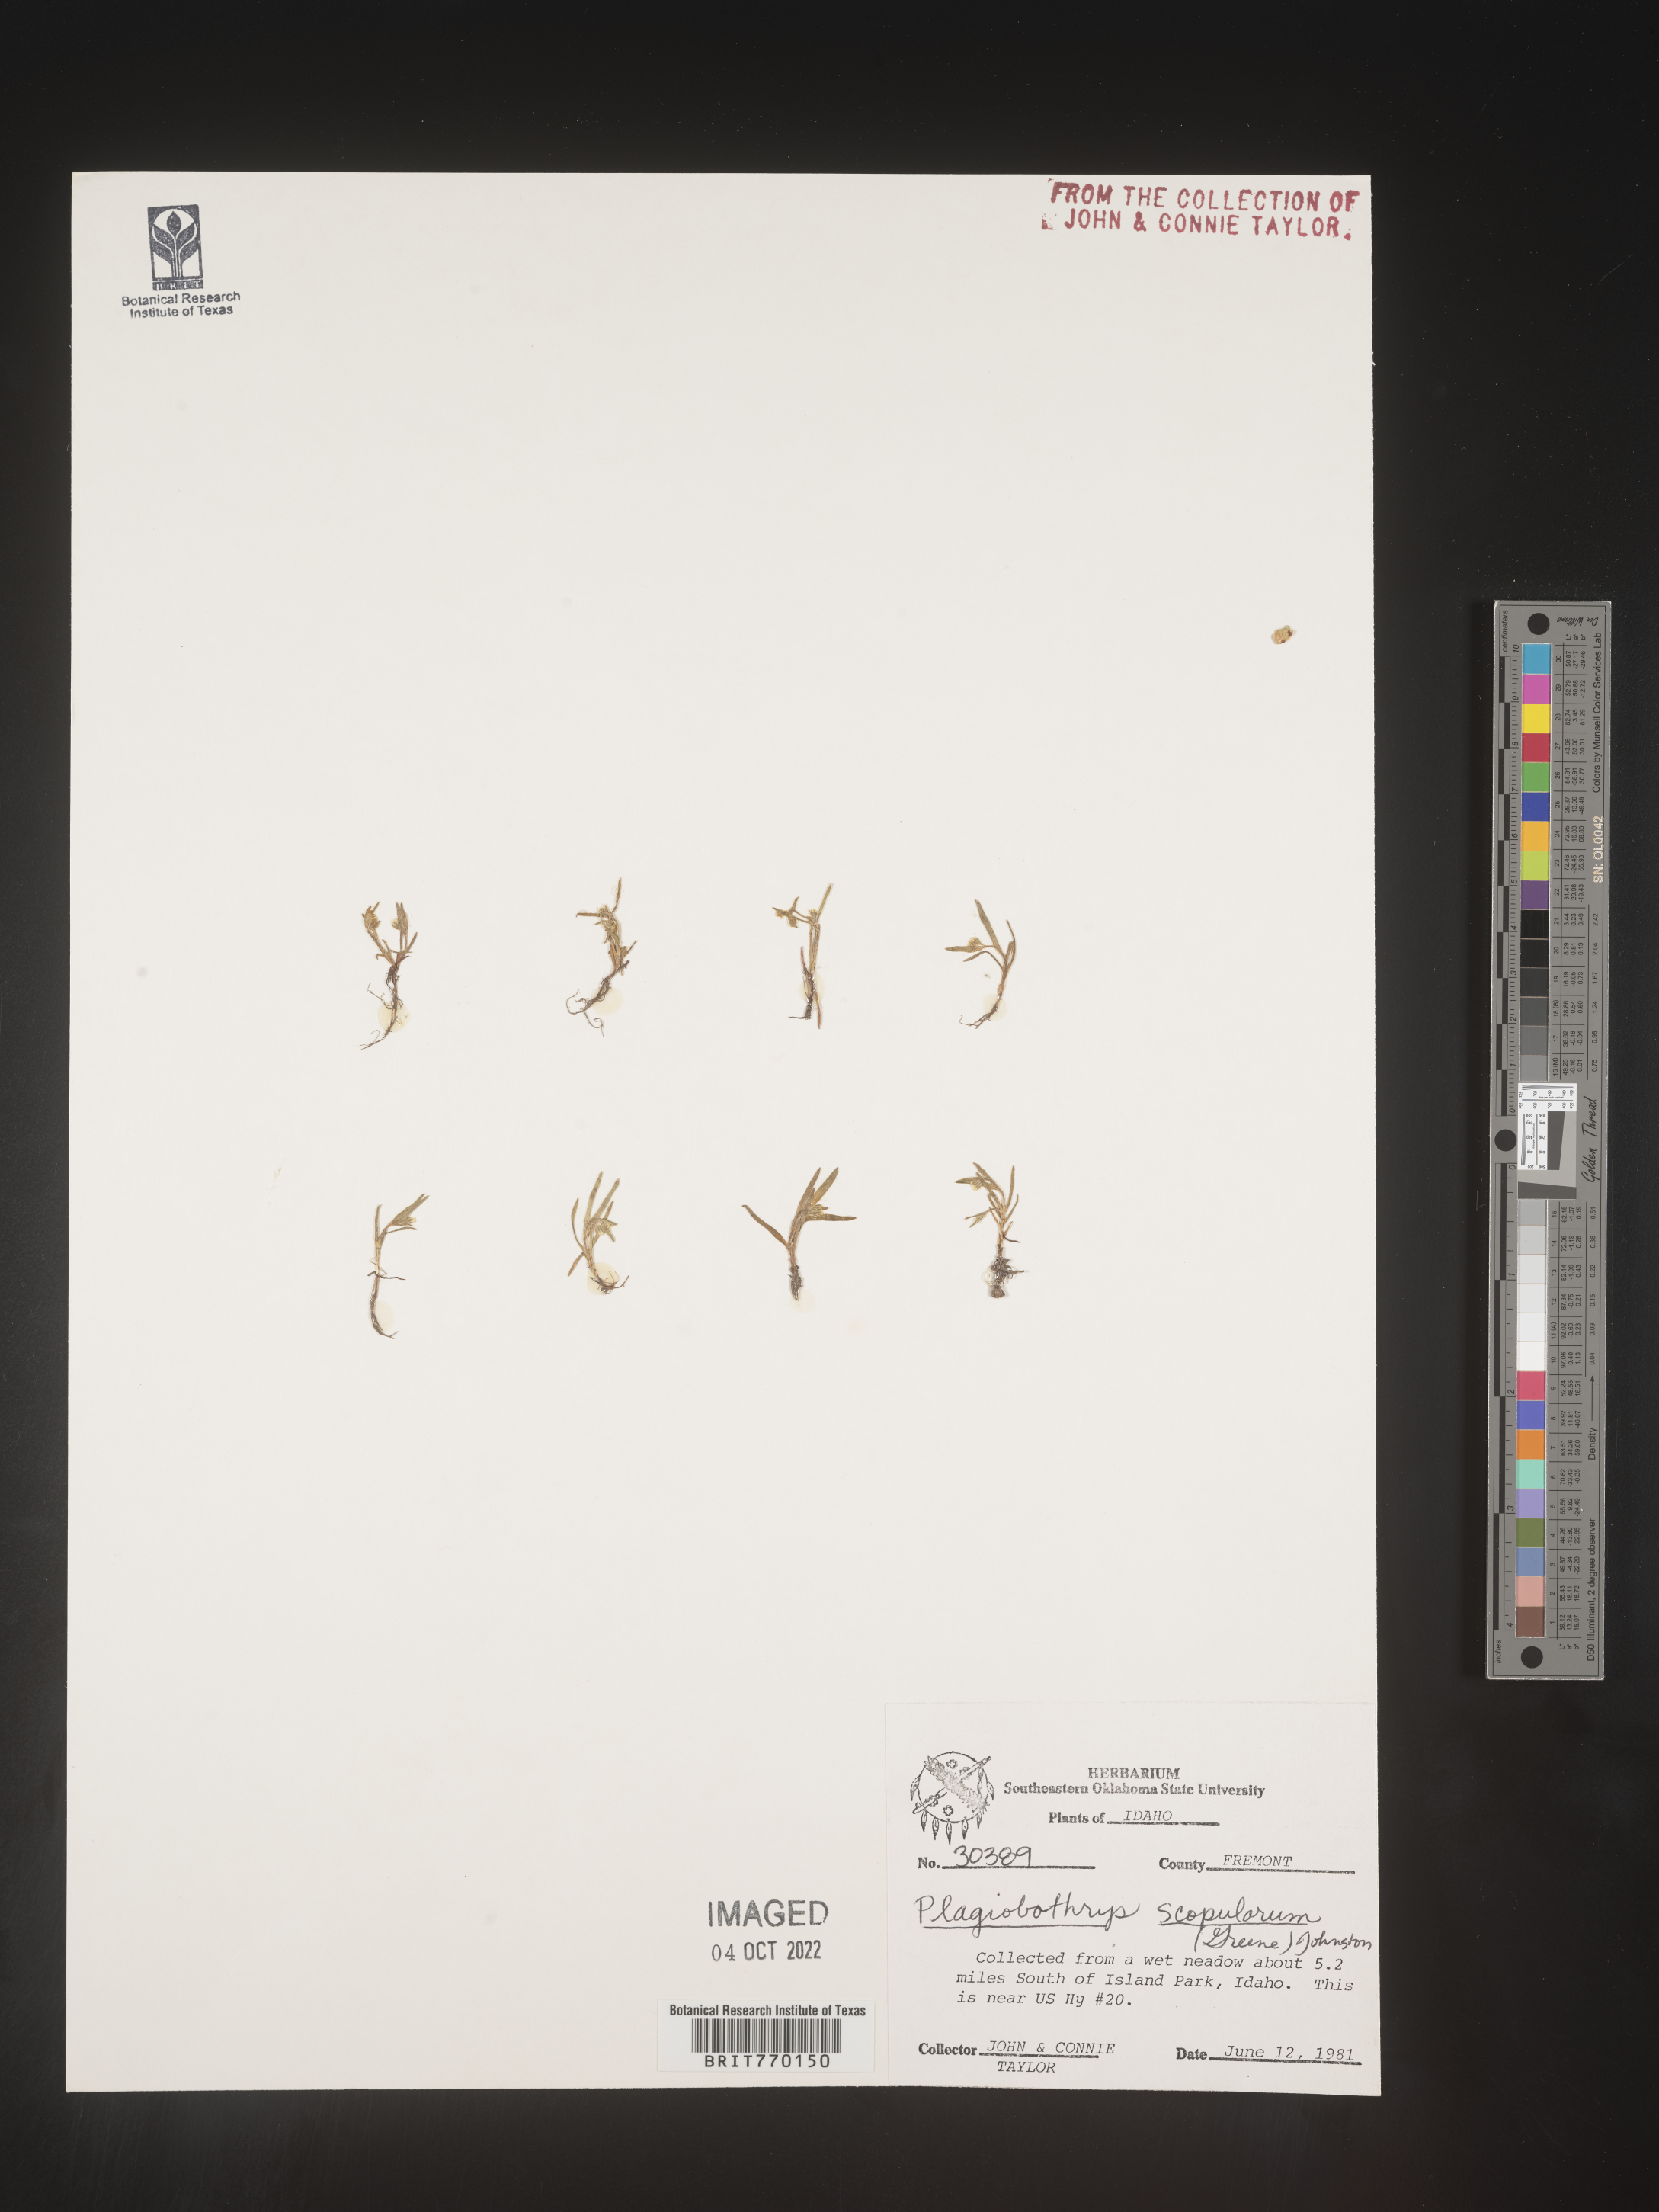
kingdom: Plantae
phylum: Tracheophyta
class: Magnoliopsida
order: Boraginales
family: Boraginaceae
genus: Plagiobothrys
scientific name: Plagiobothrys
